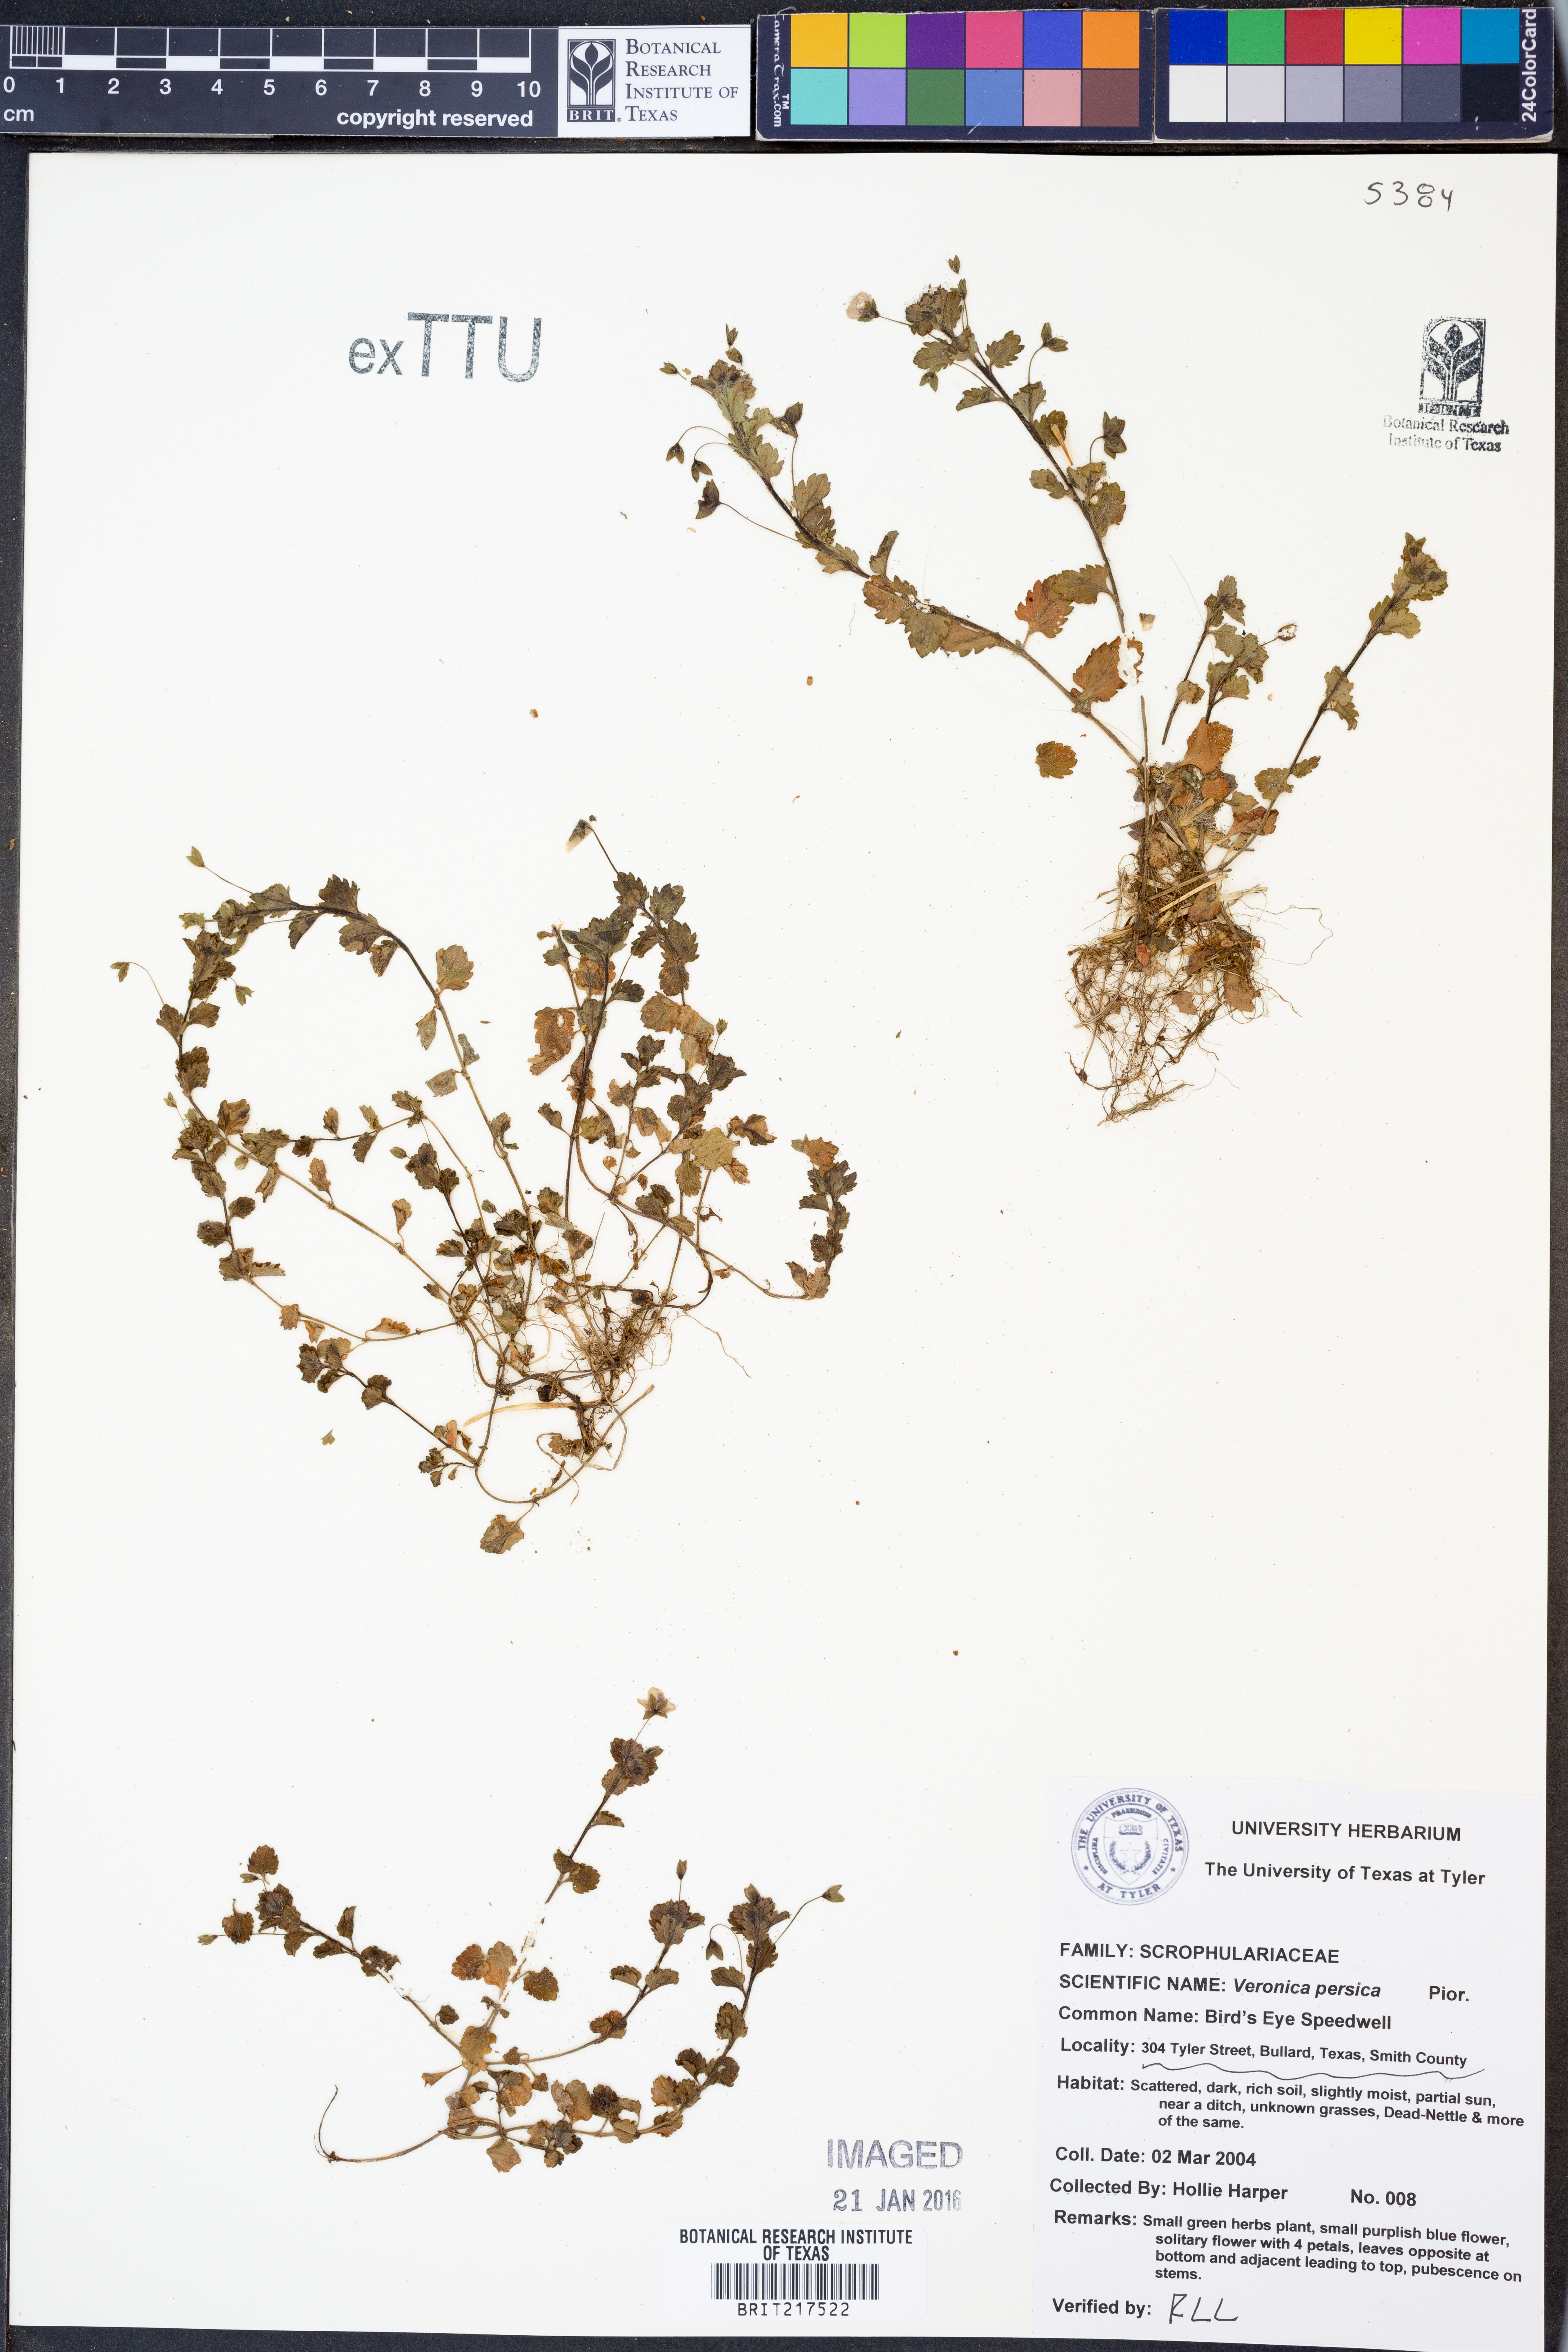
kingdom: Plantae
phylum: Tracheophyta
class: Magnoliopsida
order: Lamiales
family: Plantaginaceae
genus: Veronica
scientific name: Veronica persica
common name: Common field-speedwell
